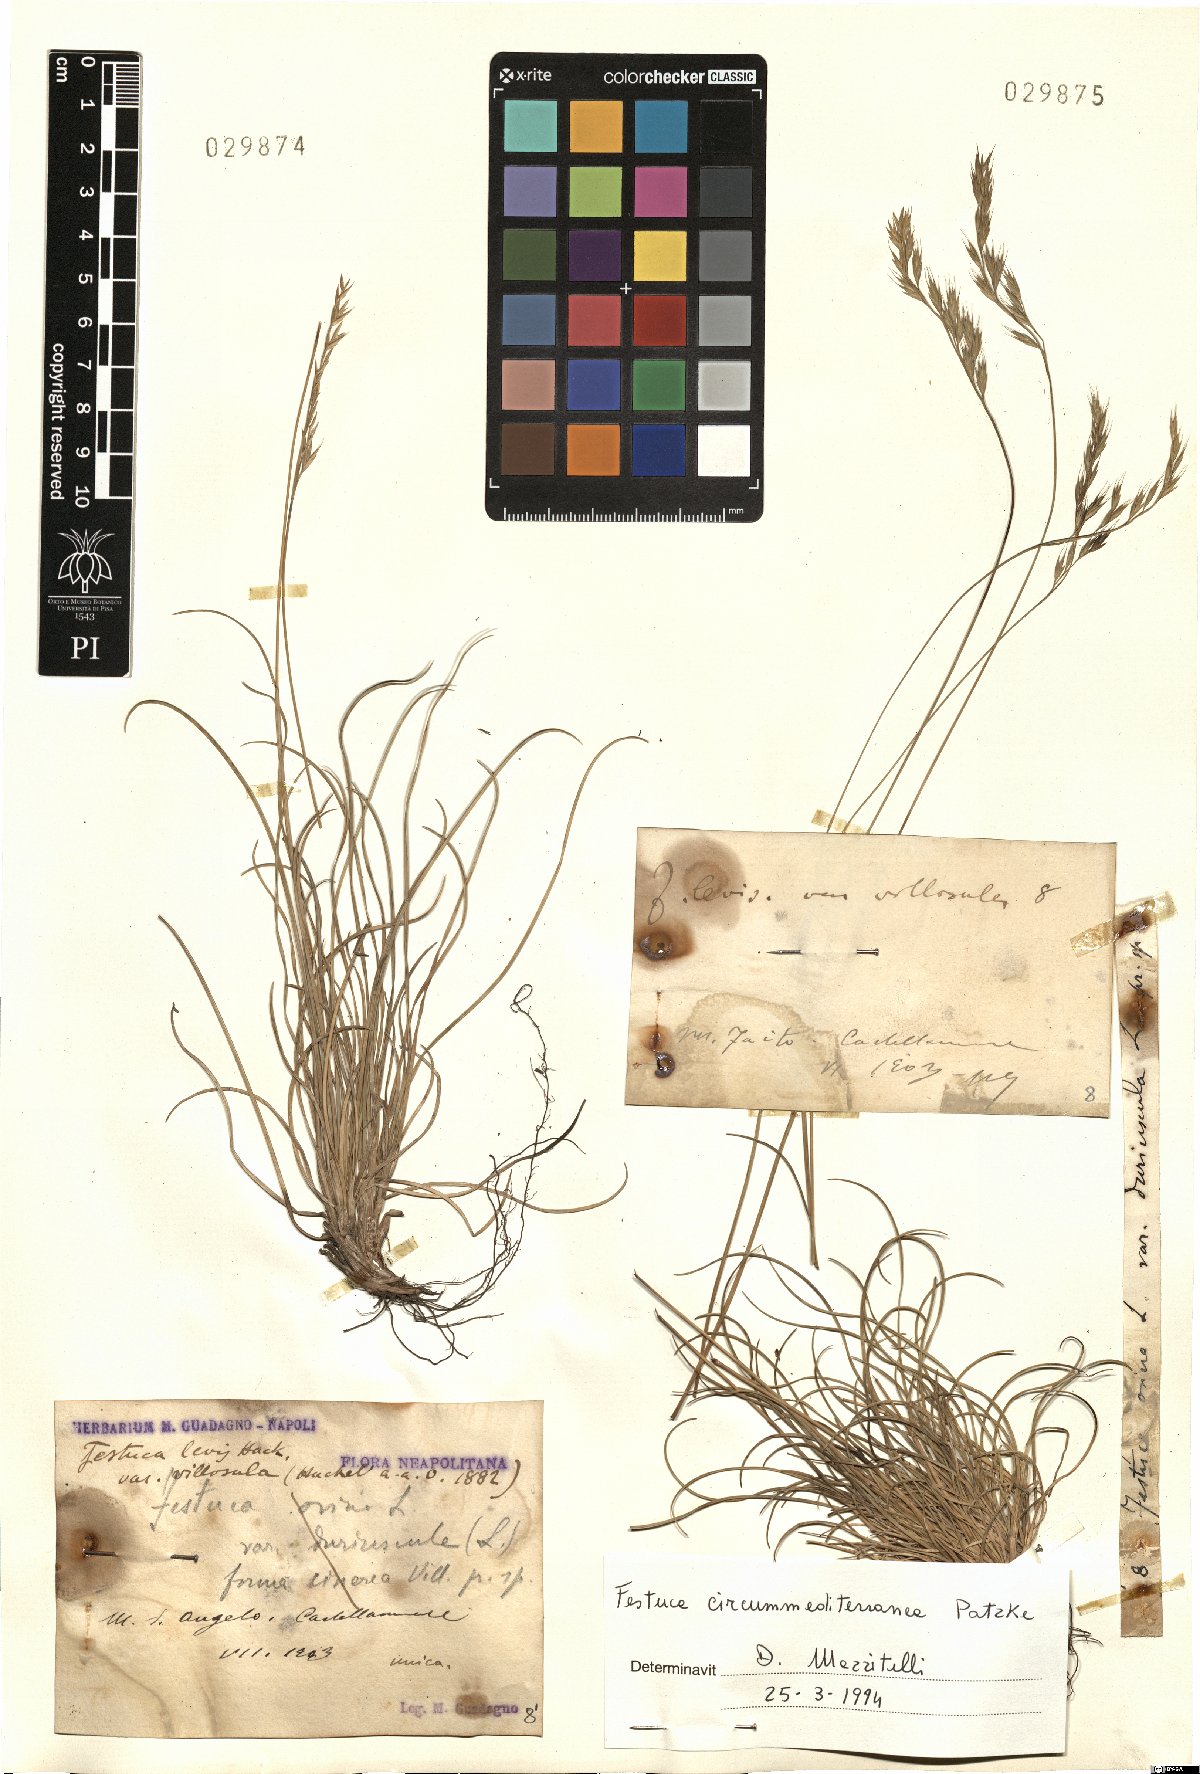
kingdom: Plantae
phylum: Tracheophyta
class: Liliopsida
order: Poales
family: Poaceae
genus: Festuca
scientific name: Festuca circummediterranea
